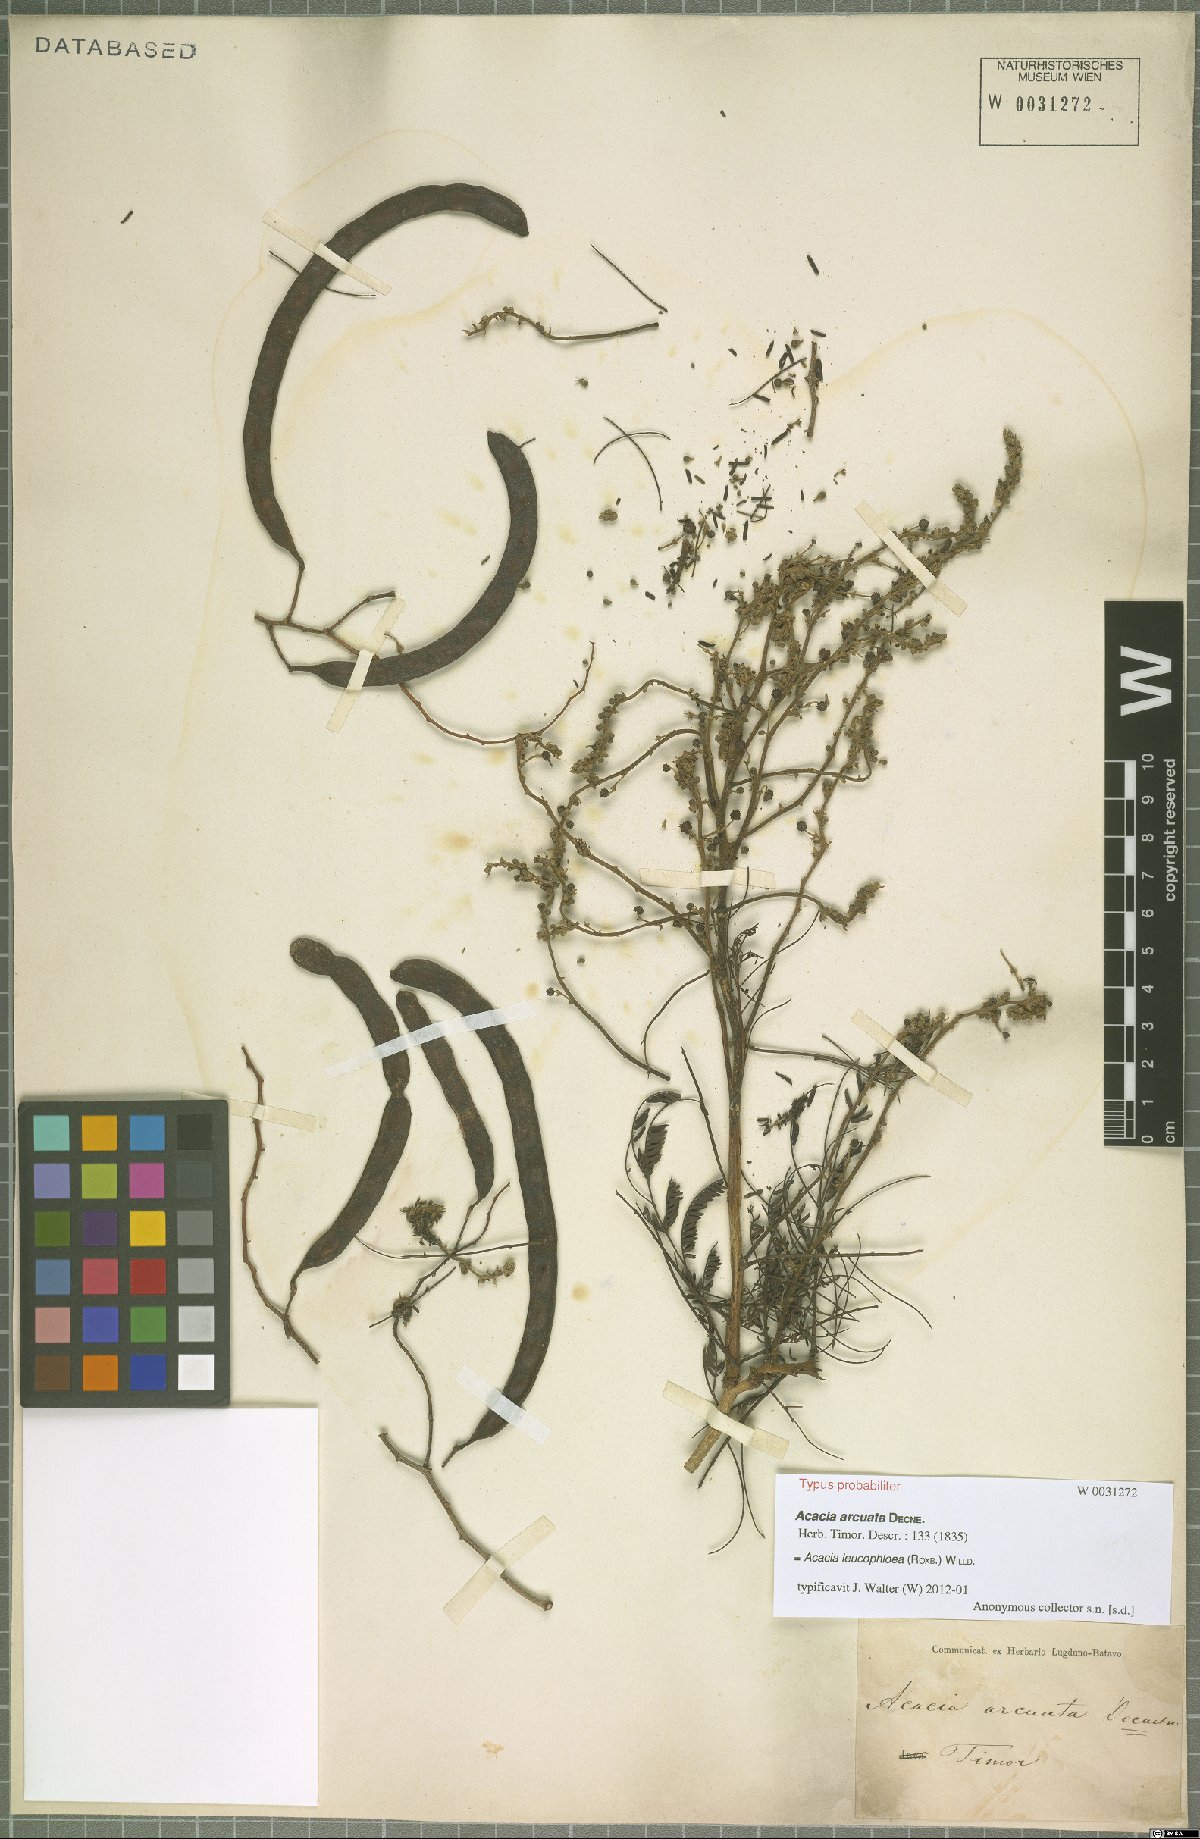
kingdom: Plantae
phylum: Tracheophyta
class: Magnoliopsida
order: Fabales
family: Fabaceae
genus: Vachellia
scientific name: Vachellia leucophloea
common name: Distiller's acacia
